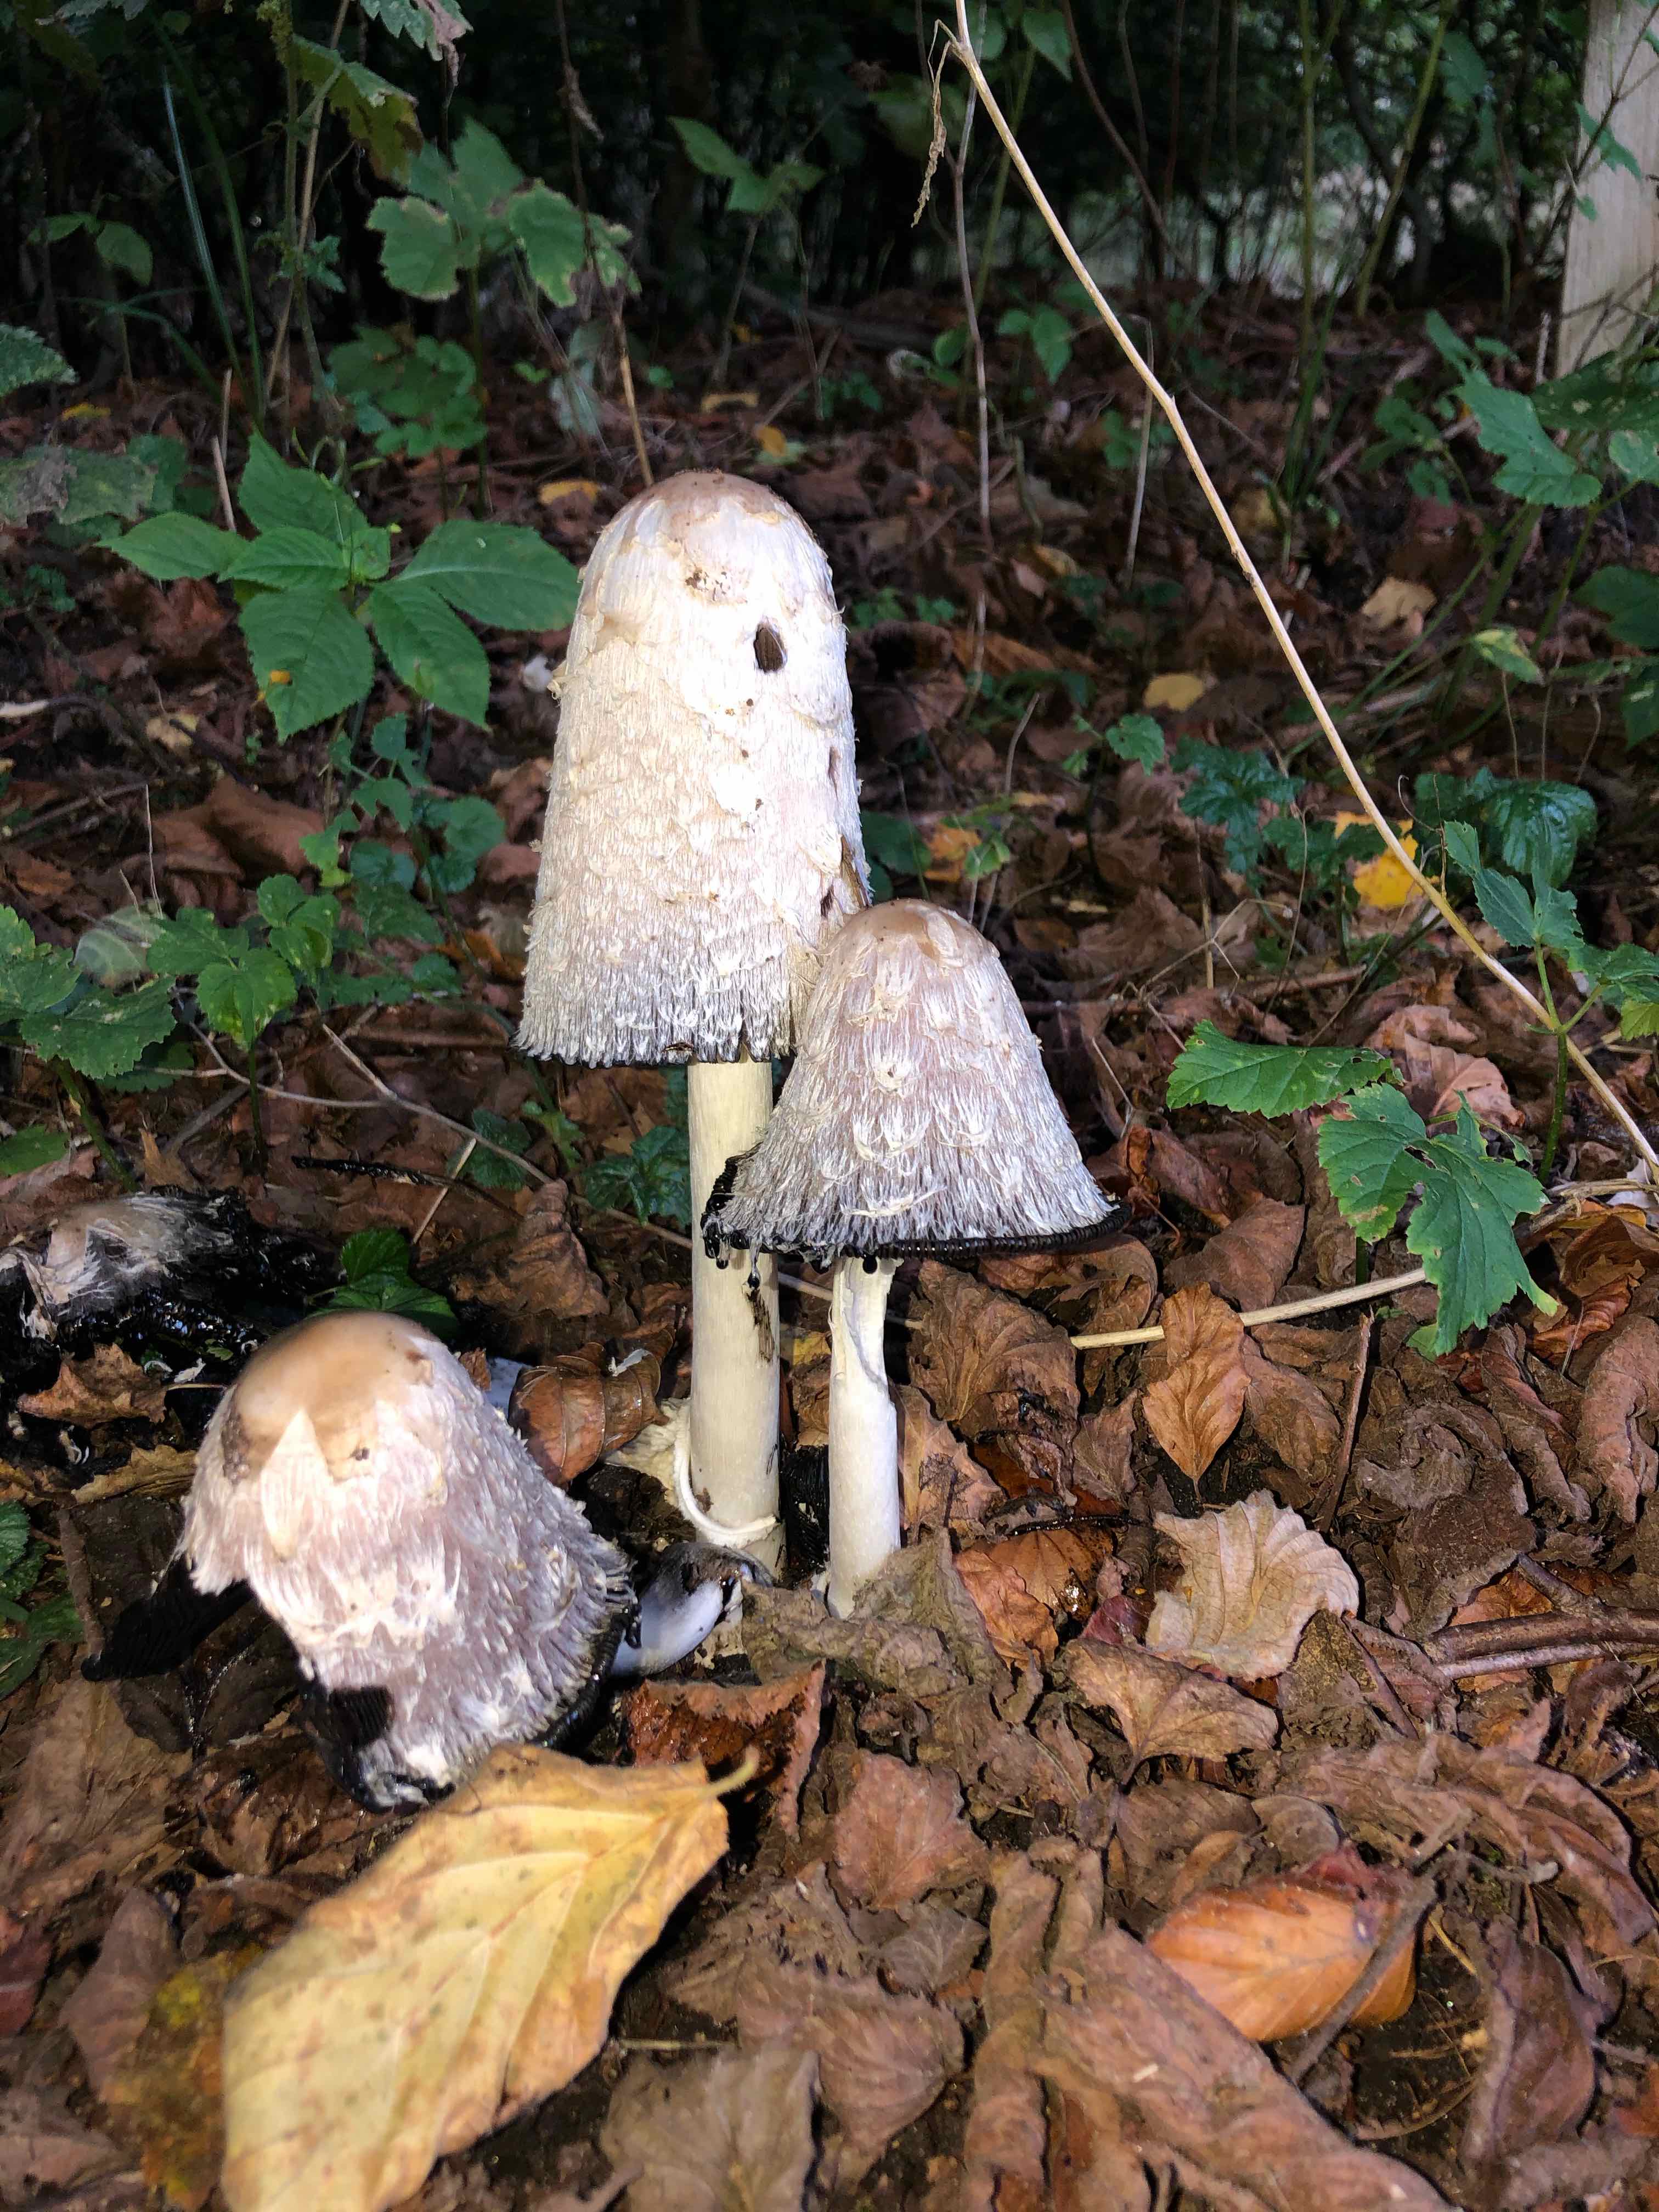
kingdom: Fungi
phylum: Basidiomycota
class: Agaricomycetes
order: Agaricales
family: Agaricaceae
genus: Coprinus
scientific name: Coprinus comatus
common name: stor parykhat
